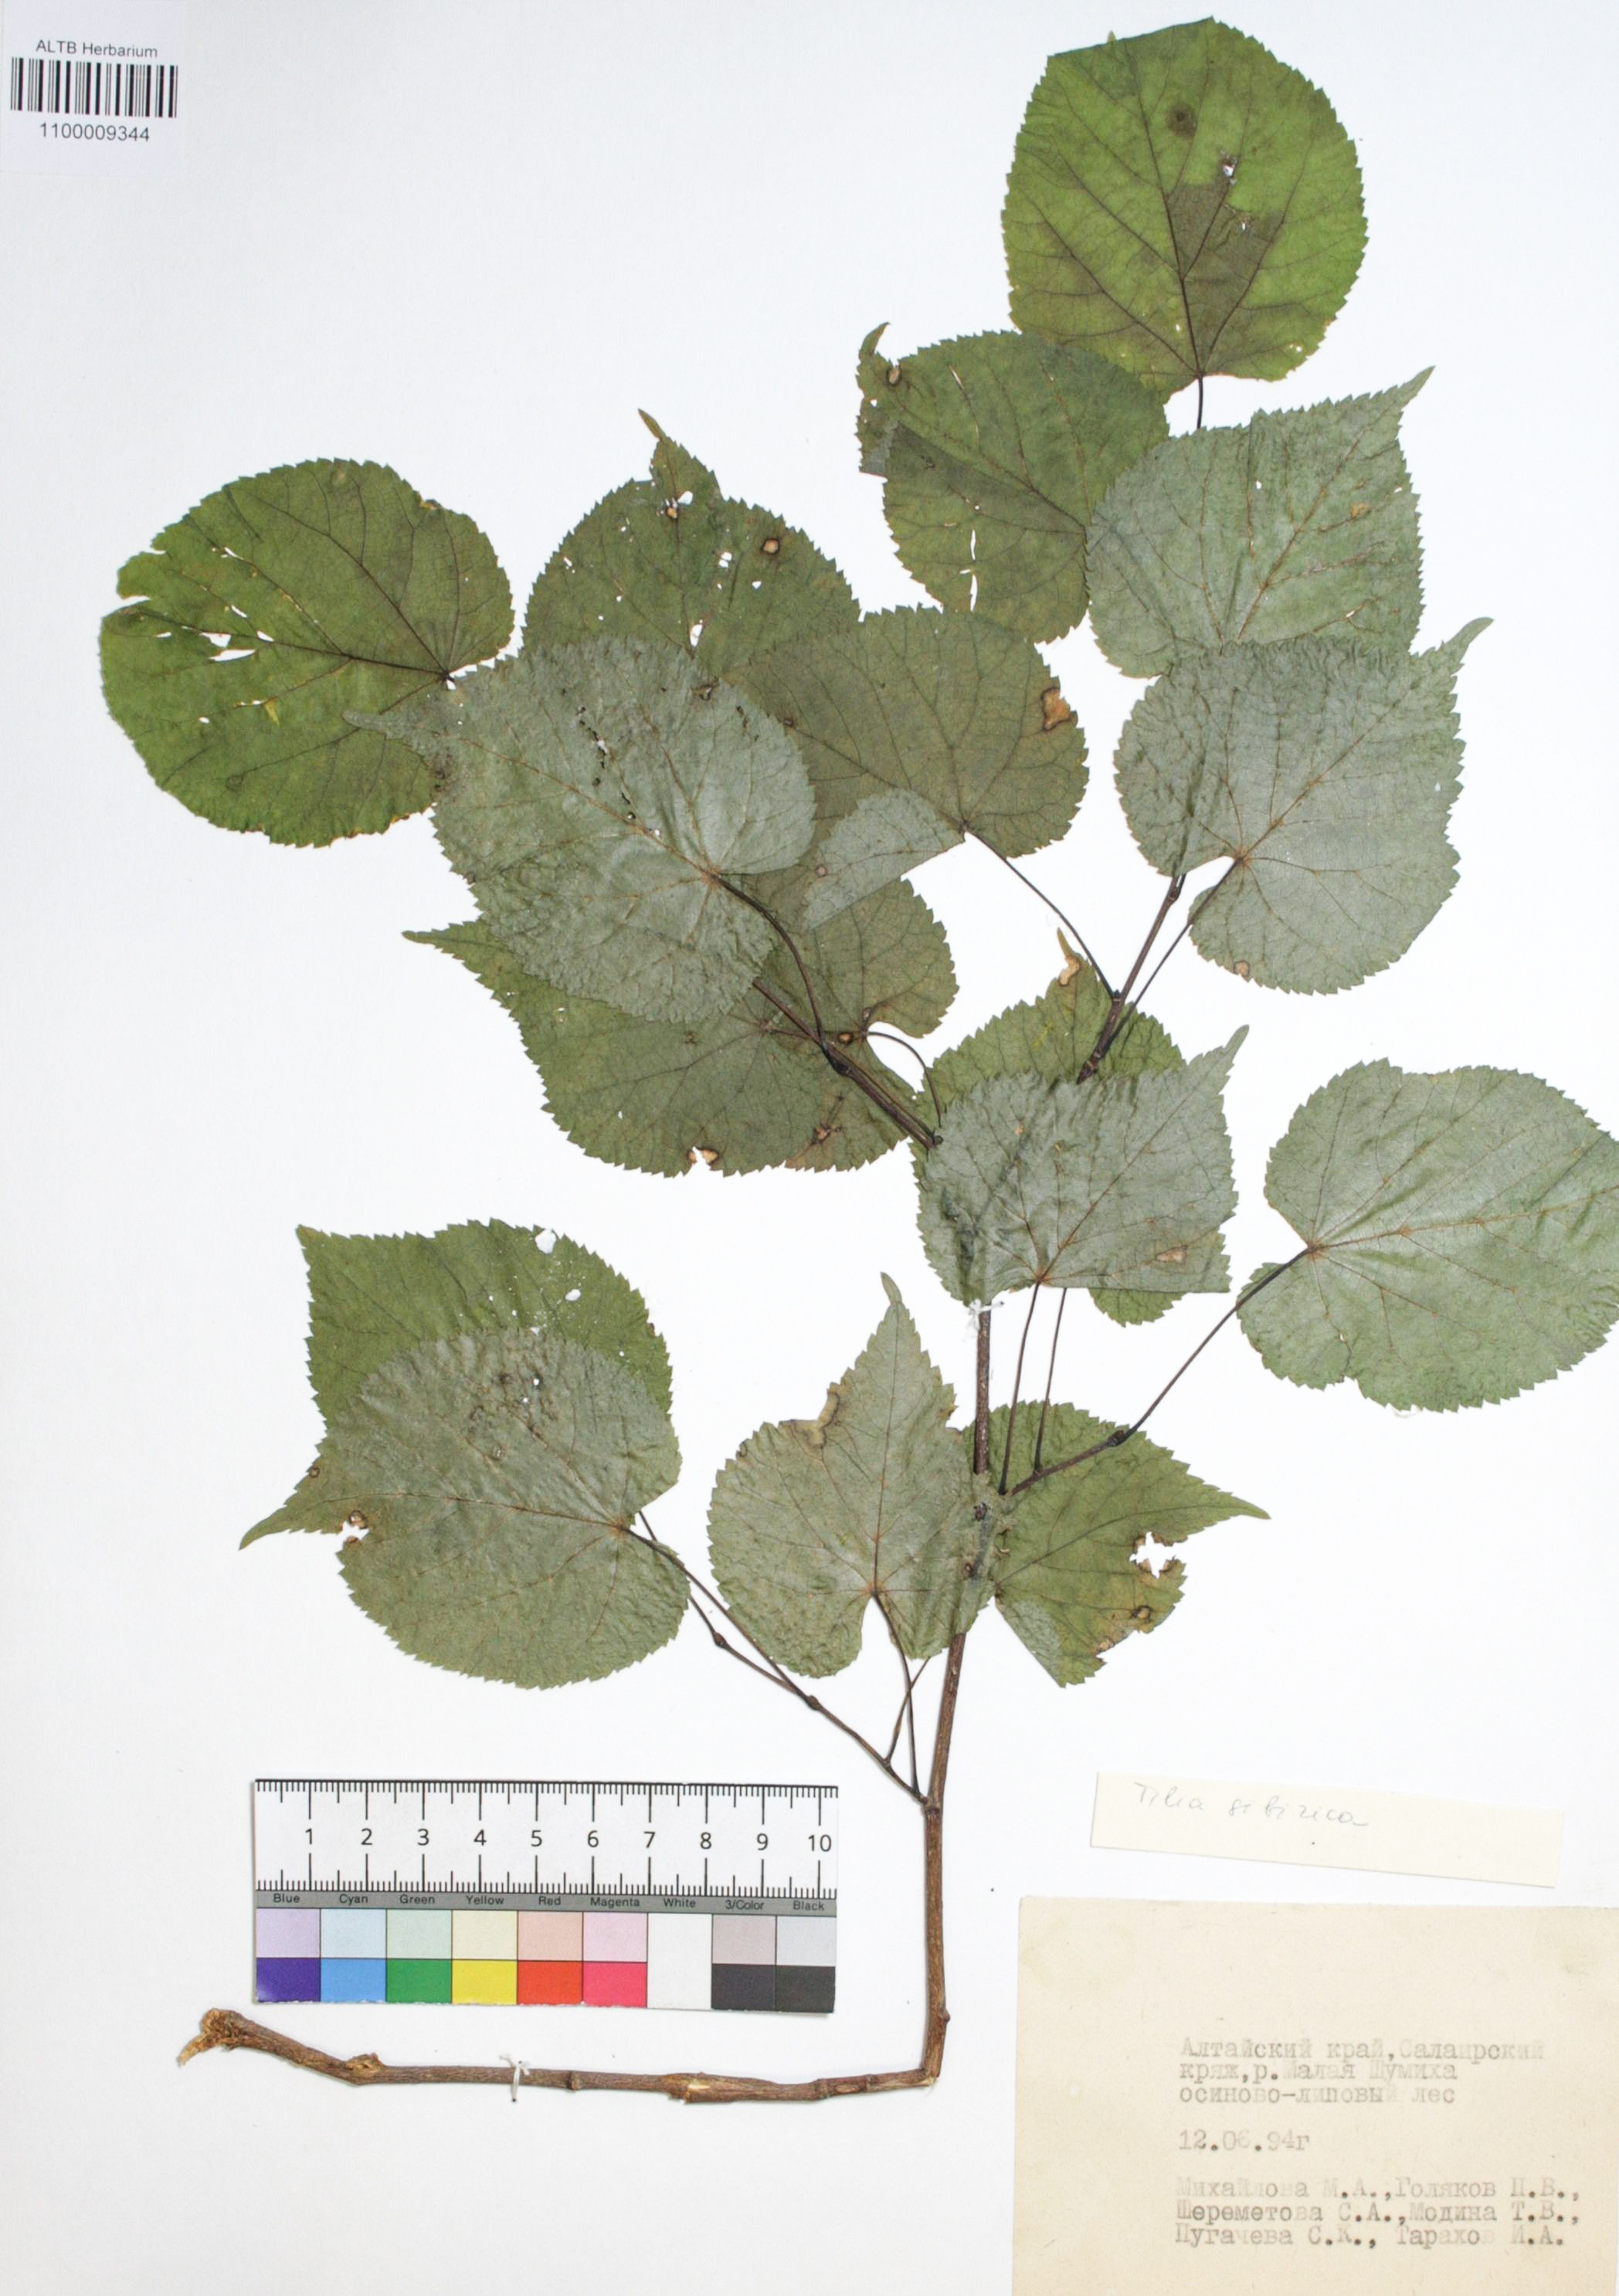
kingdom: Plantae
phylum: Tracheophyta
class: Magnoliopsida
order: Malvales
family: Malvaceae
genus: Tilia
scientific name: Tilia cordata
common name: Small-leaved lime
